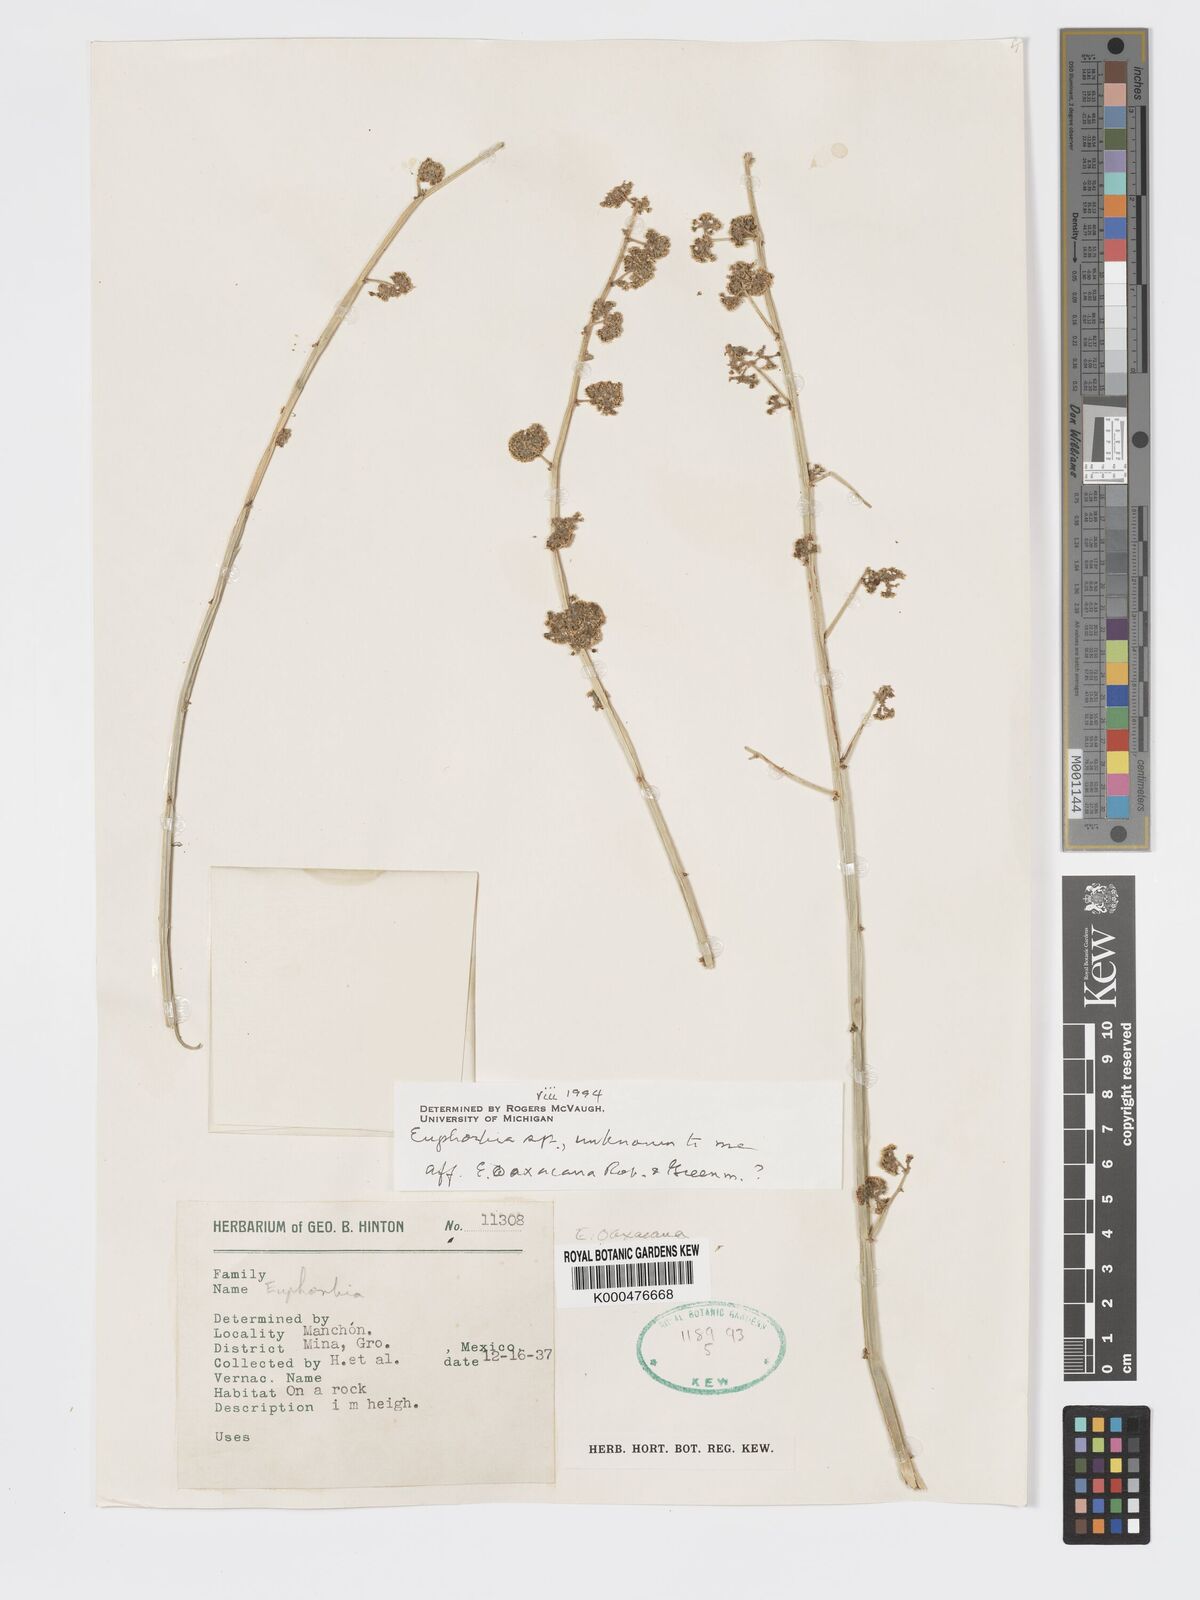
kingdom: Plantae
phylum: Tracheophyta
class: Magnoliopsida
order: Malpighiales
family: Euphorbiaceae
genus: Euphorbia
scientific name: Euphorbia oaxacana
